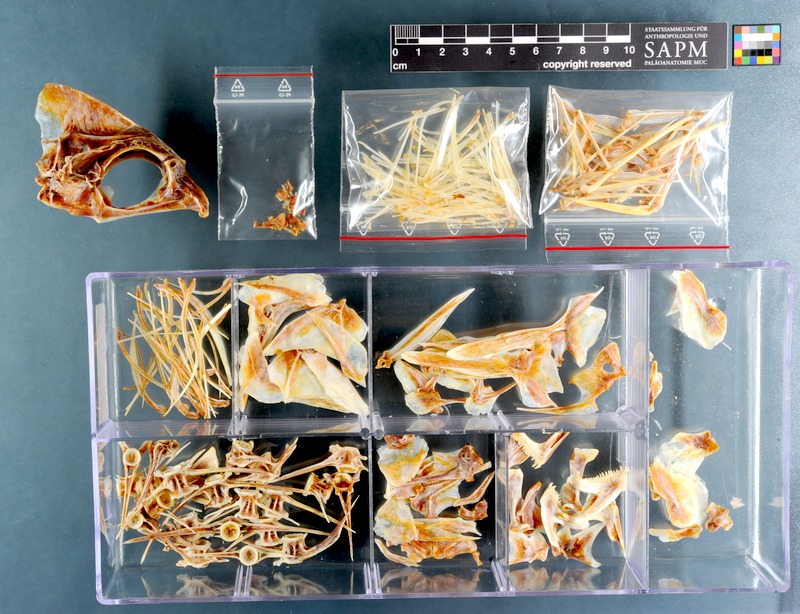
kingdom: Animalia
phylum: Chordata
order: Perciformes
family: Sparidae
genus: Polysteganus
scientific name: Polysteganus undulosus
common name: Seventy-four seabream
